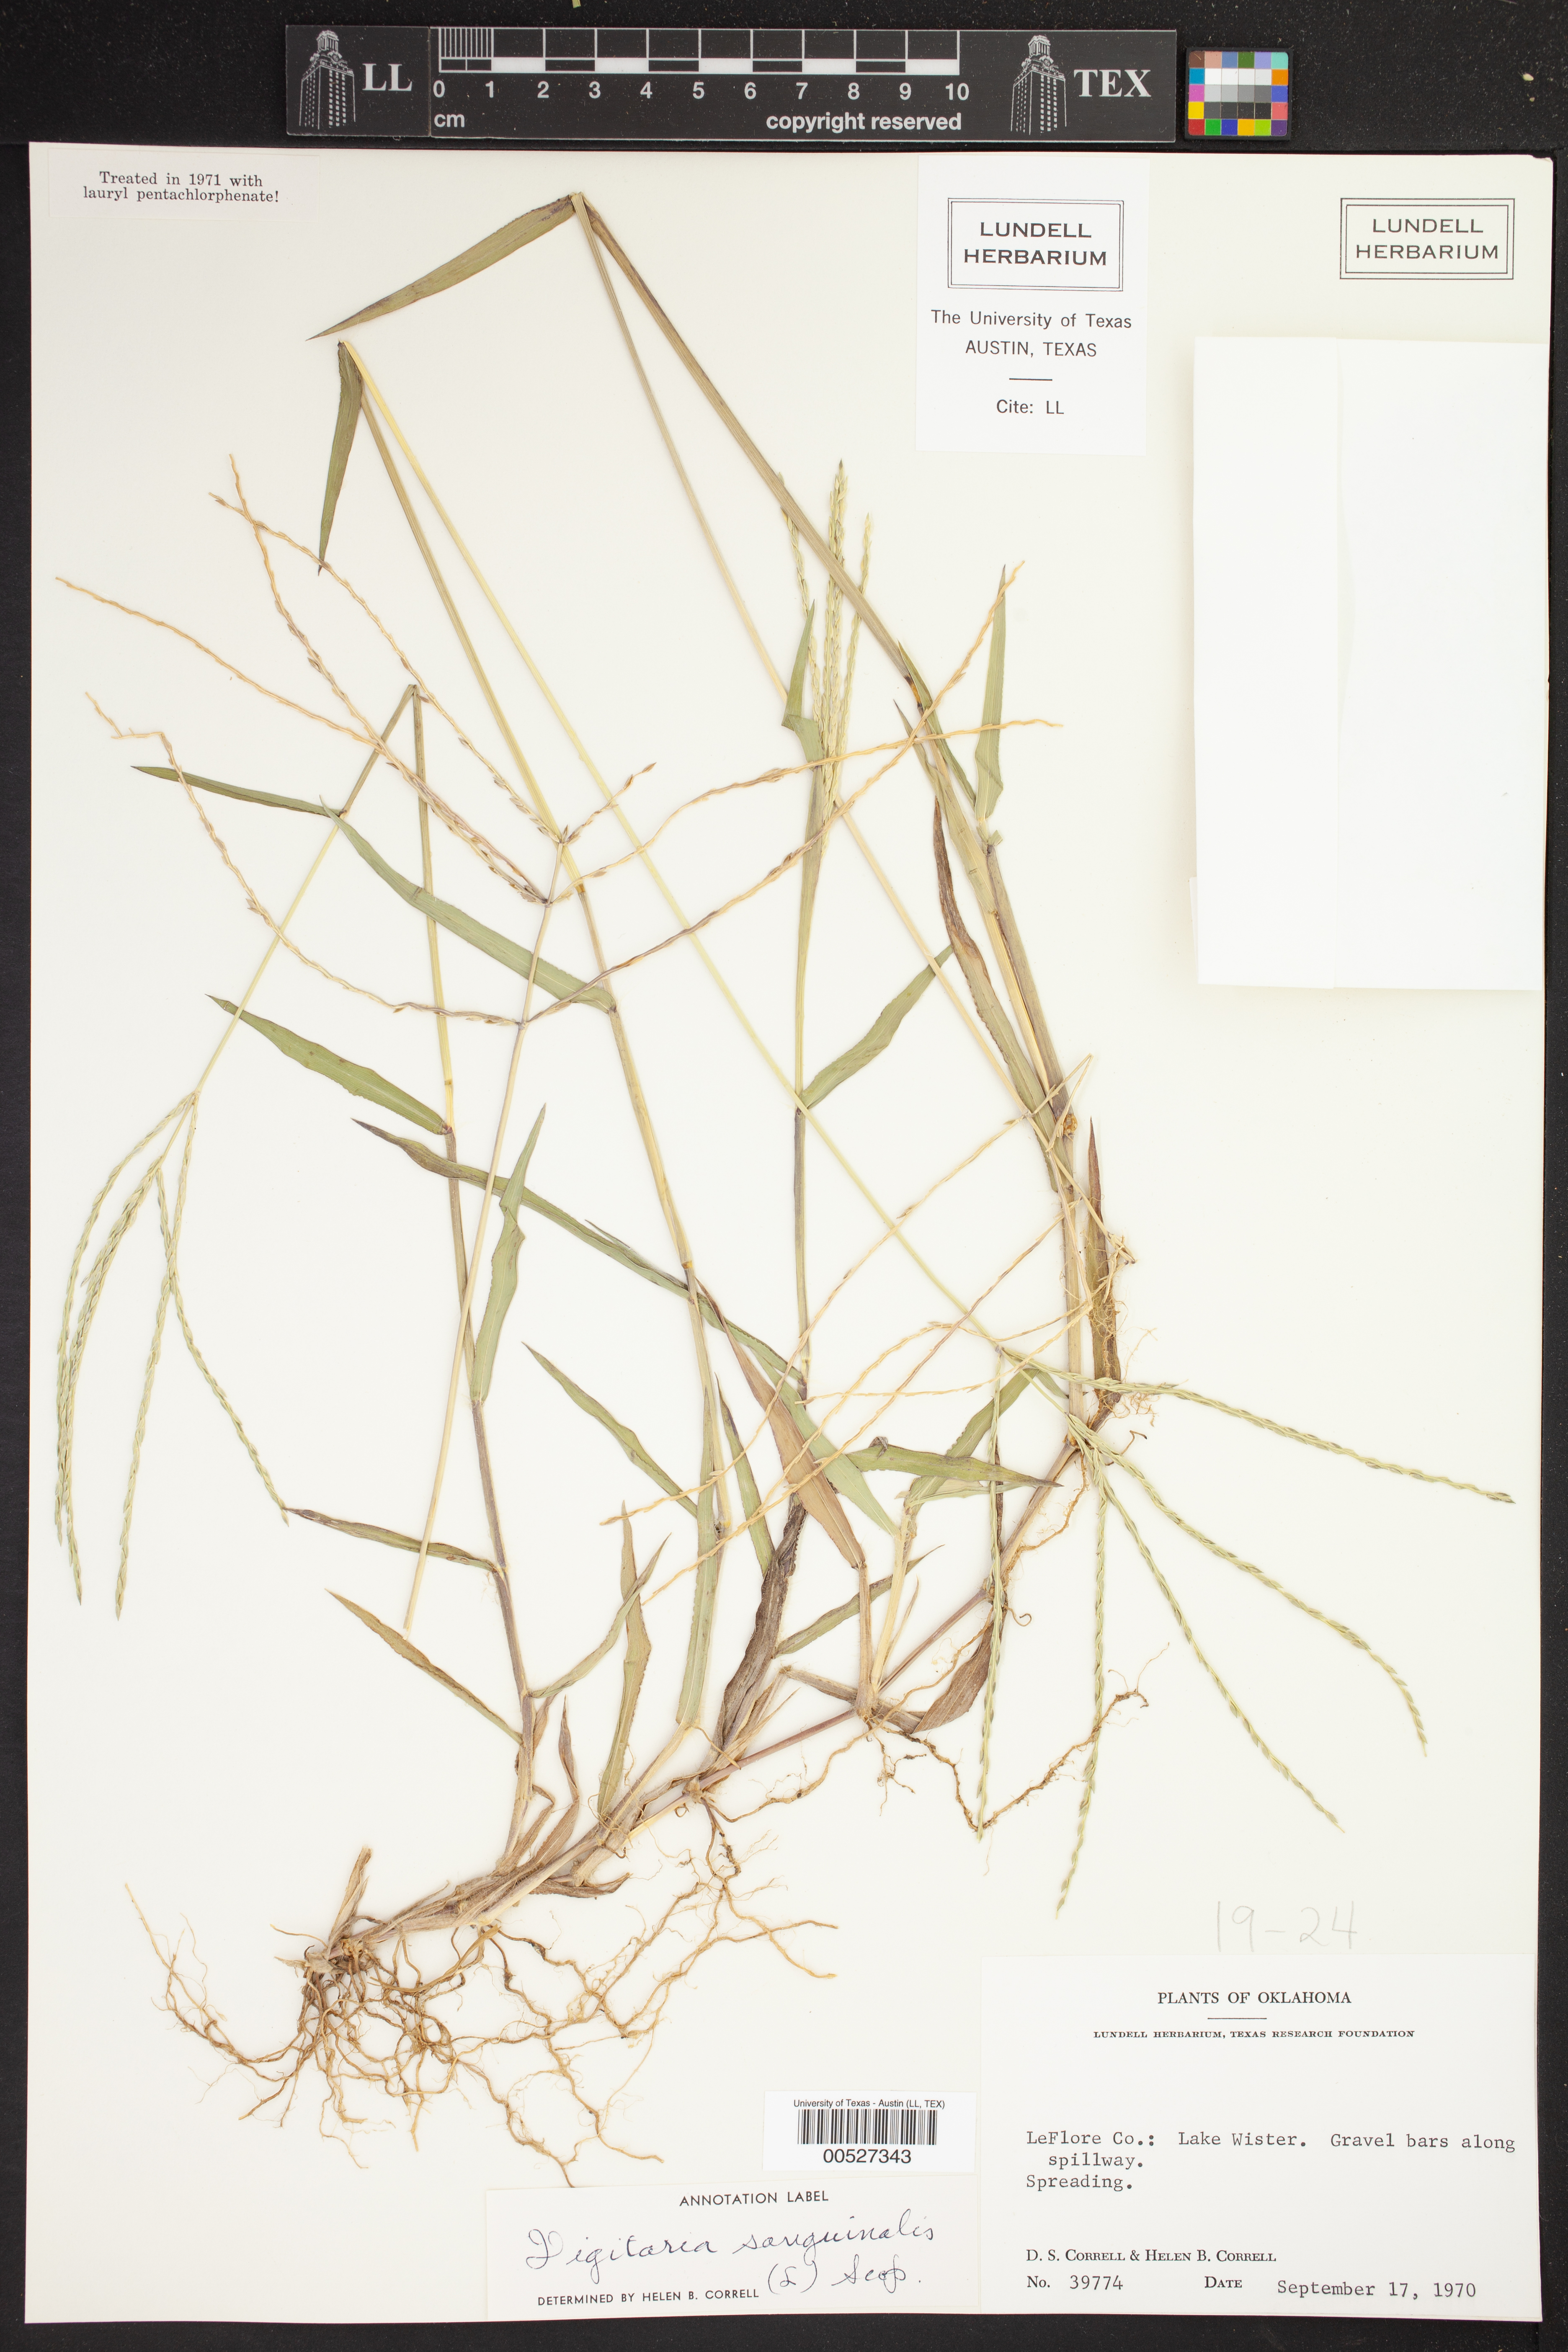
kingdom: Plantae
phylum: Tracheophyta
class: Liliopsida
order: Poales
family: Poaceae
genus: Digitaria
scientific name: Digitaria sanguinalis
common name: Hairy crabgrass
